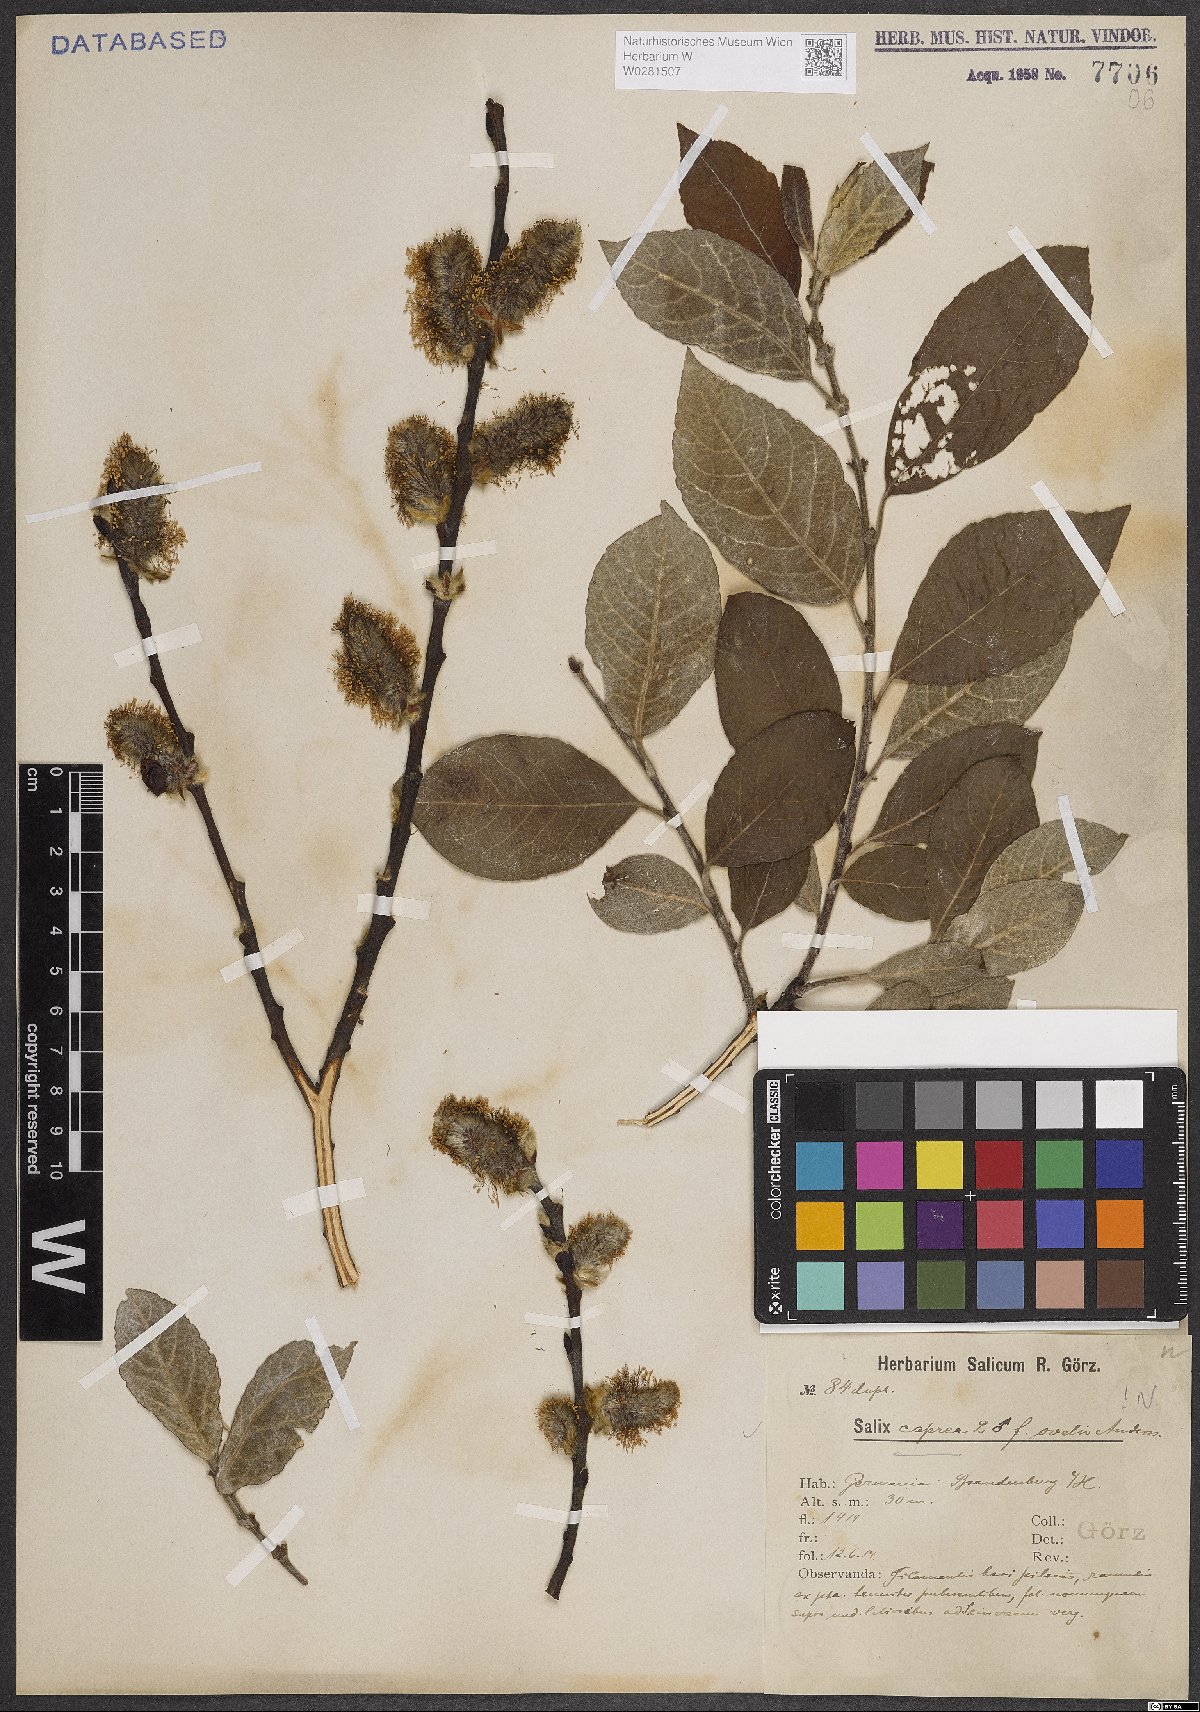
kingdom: Plantae
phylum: Tracheophyta
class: Magnoliopsida
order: Malpighiales
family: Salicaceae
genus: Salix
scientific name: Salix caprea
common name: Goat willow
